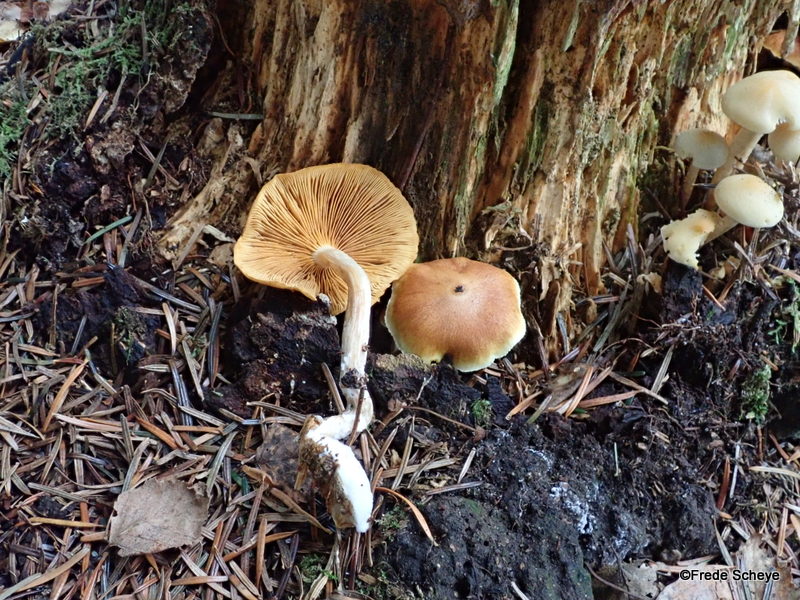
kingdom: Fungi
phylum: Basidiomycota
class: Agaricomycetes
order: Agaricales
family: Hymenogastraceae
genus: Gymnopilus
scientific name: Gymnopilus penetrans
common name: plettet flammehat
